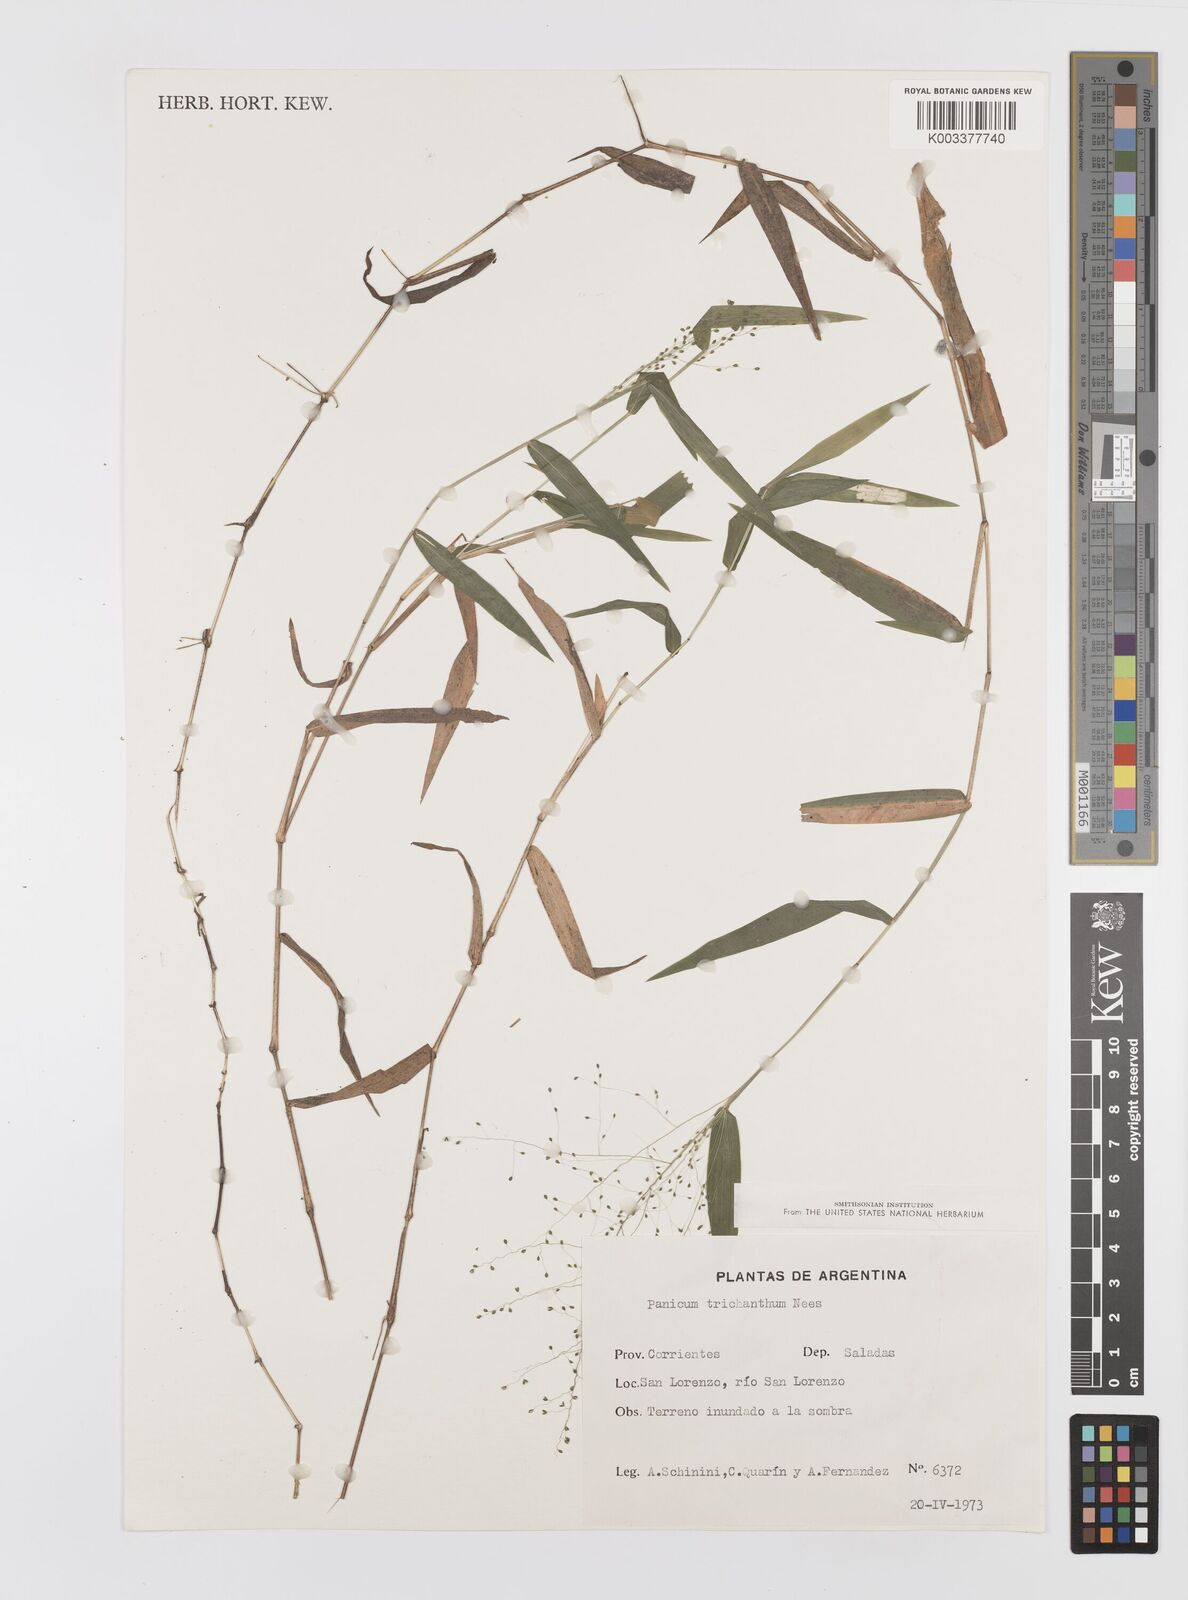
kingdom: Plantae
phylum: Tracheophyta
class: Liliopsida
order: Poales
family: Poaceae
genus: Panicum
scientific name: Panicum trichanthum
